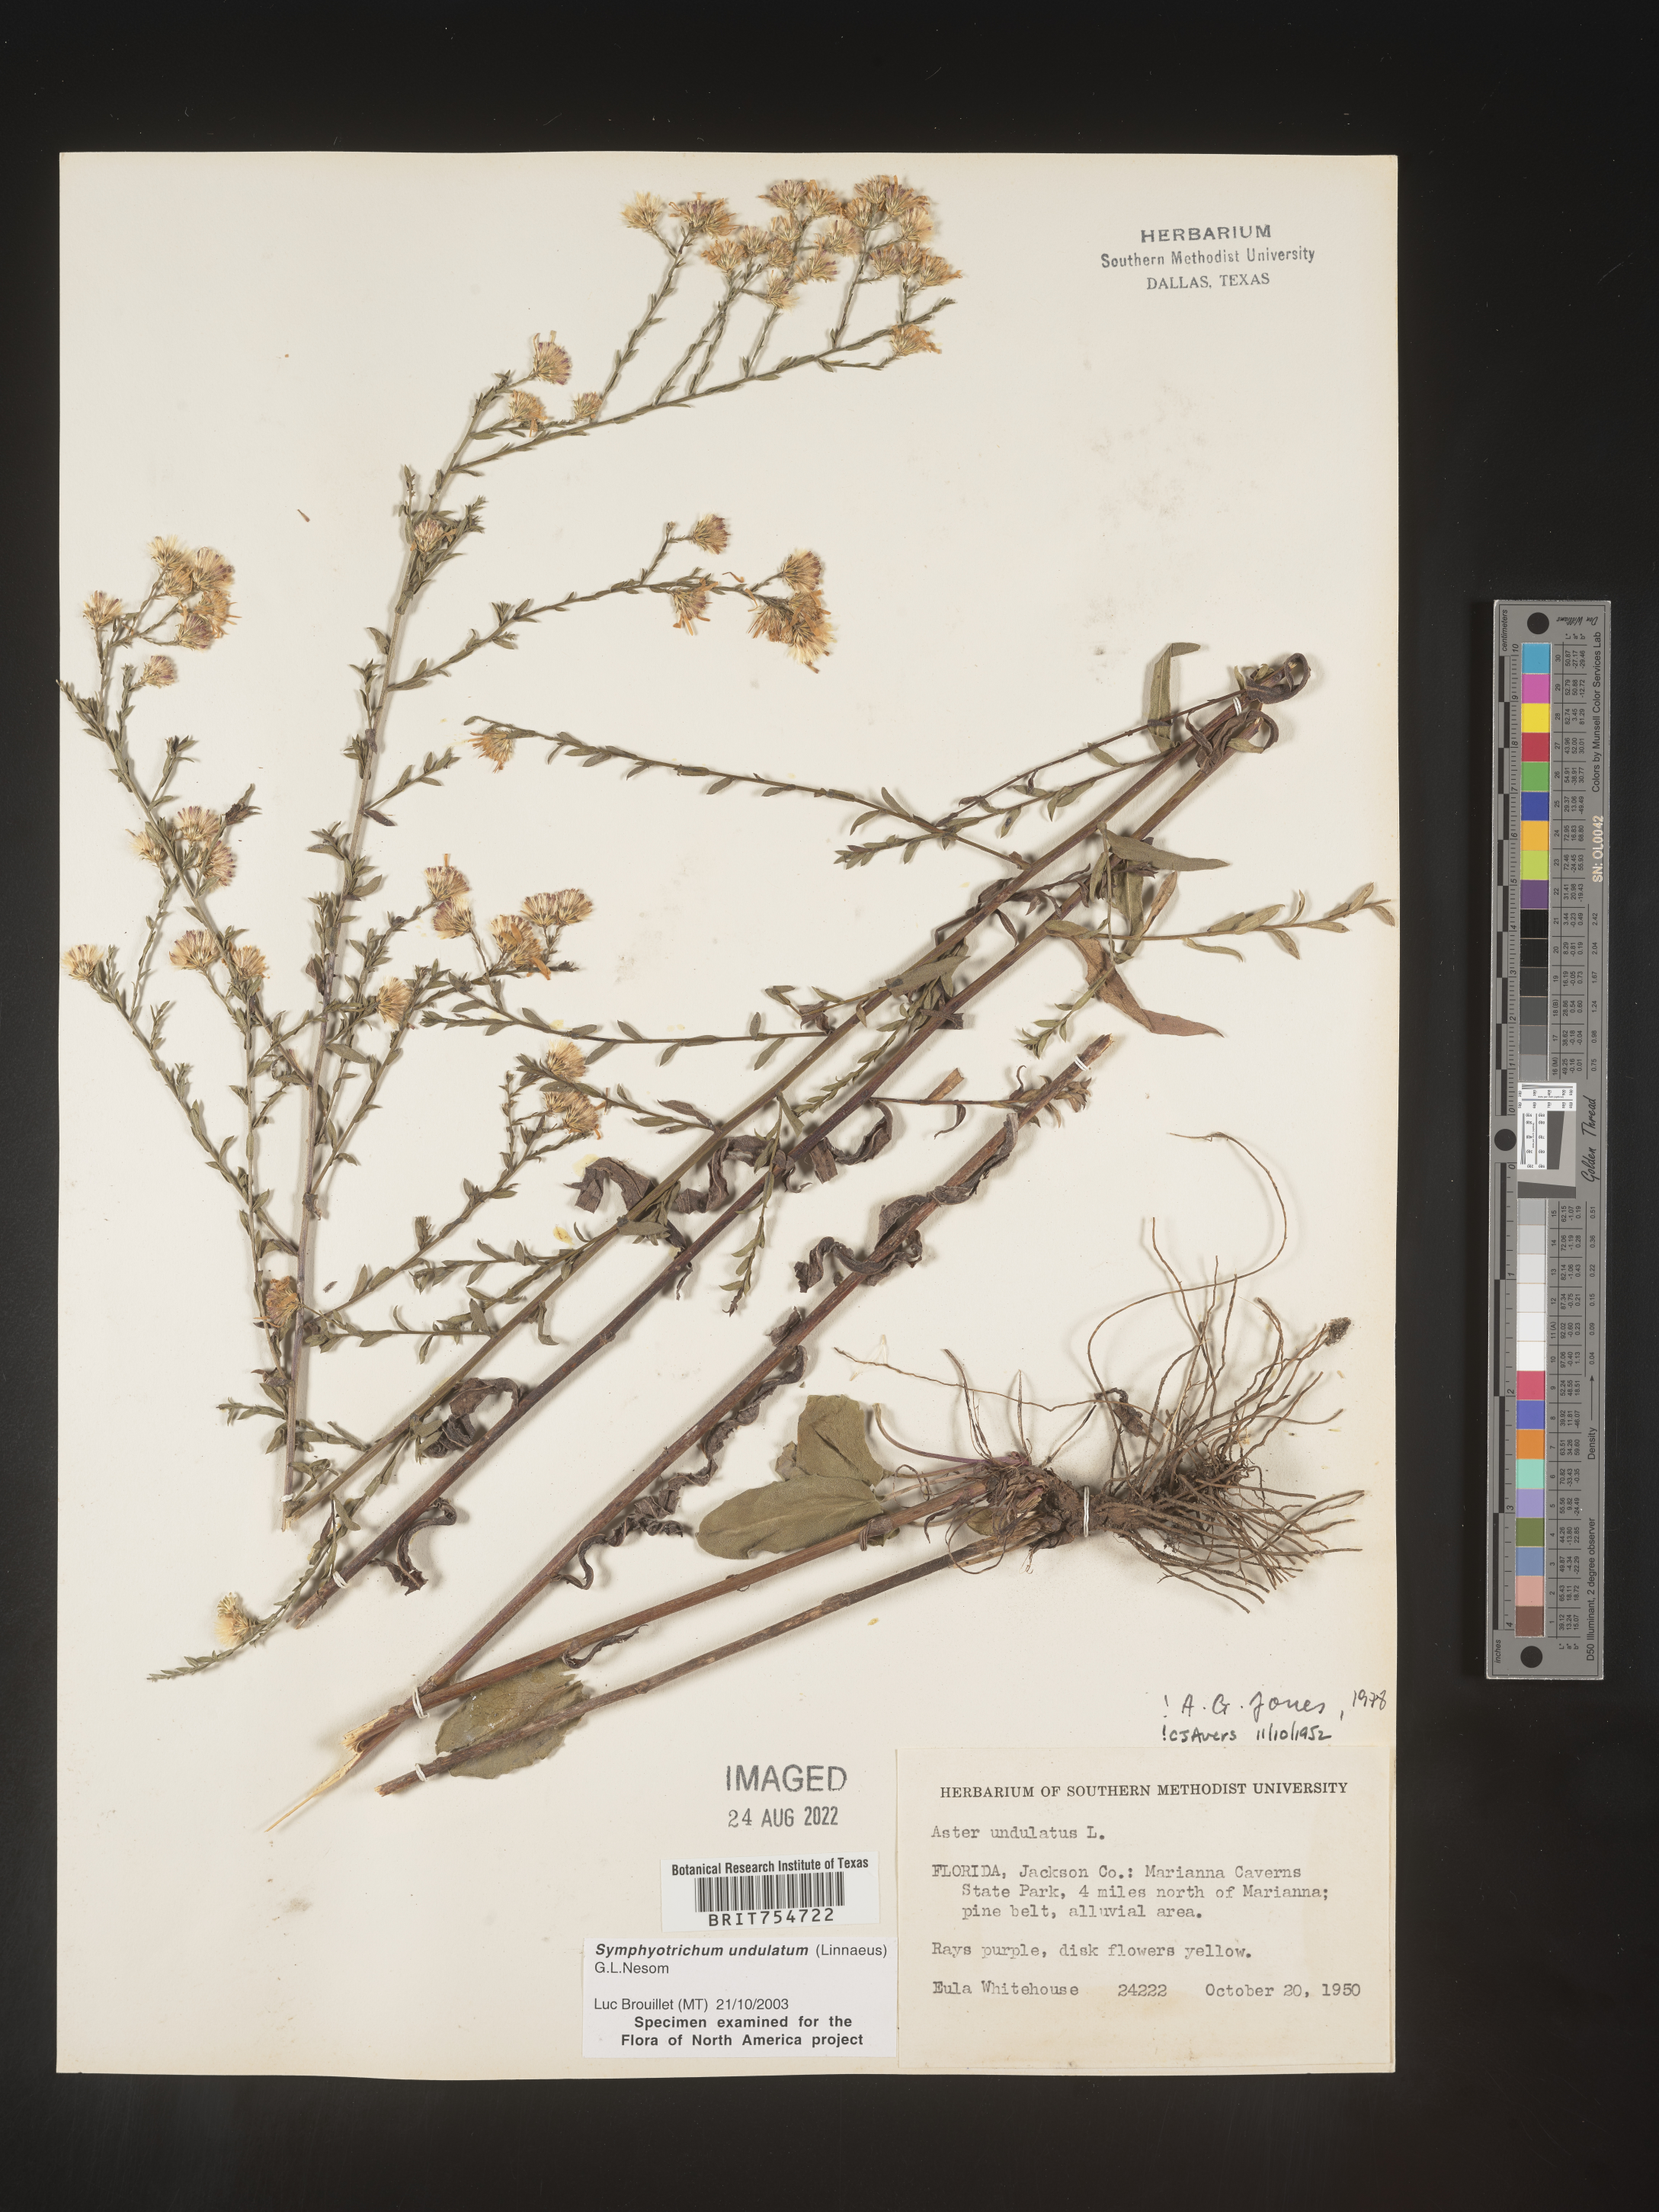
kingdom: Plantae
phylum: Tracheophyta
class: Magnoliopsida
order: Asterales
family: Asteraceae
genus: Symphyotrichum
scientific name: Symphyotrichum undulatum
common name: Clasping heart-leaf aster
